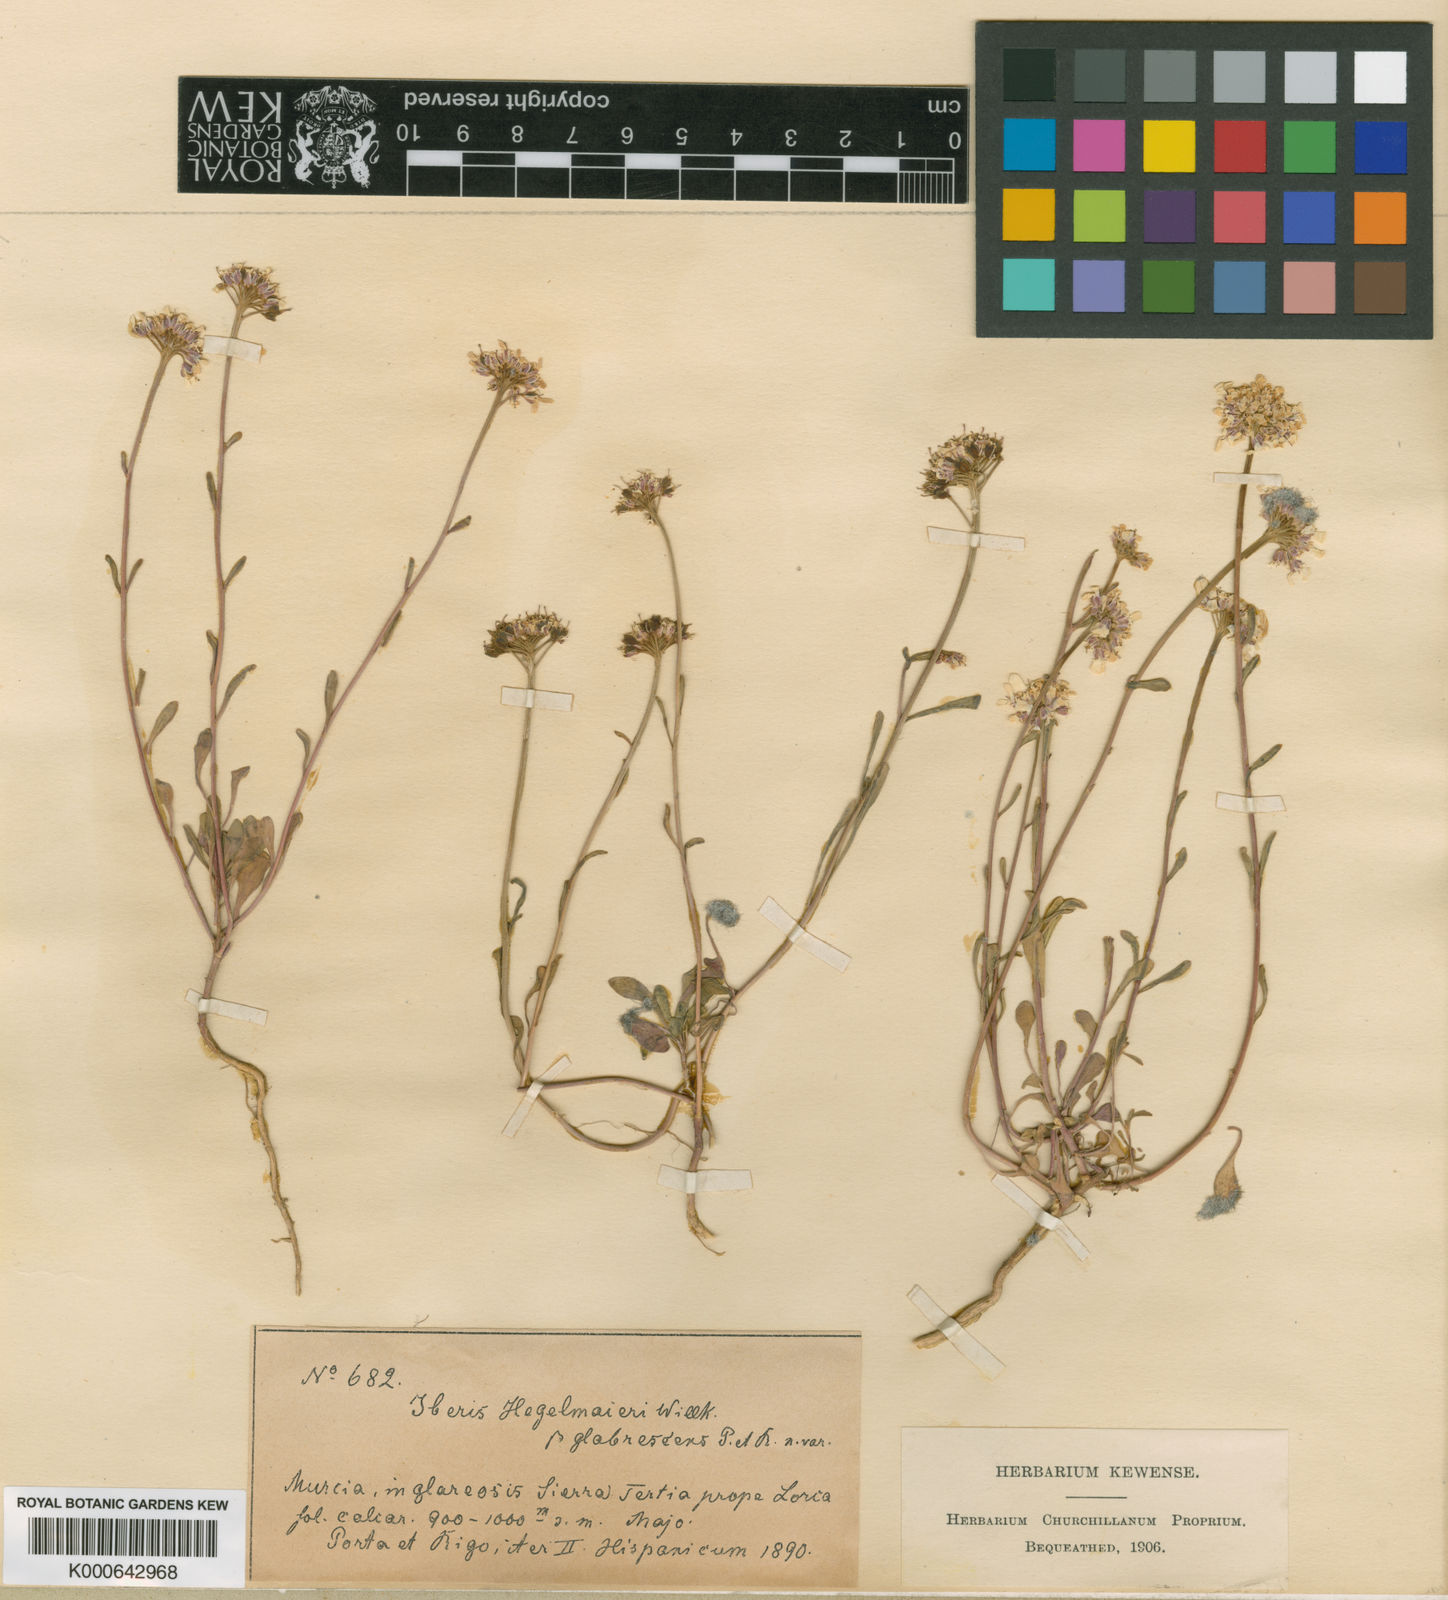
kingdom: Plantae
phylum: Tracheophyta
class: Magnoliopsida
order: Brassicales
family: Brassicaceae
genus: Iberis
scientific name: Iberis linifolia
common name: Candytuft
